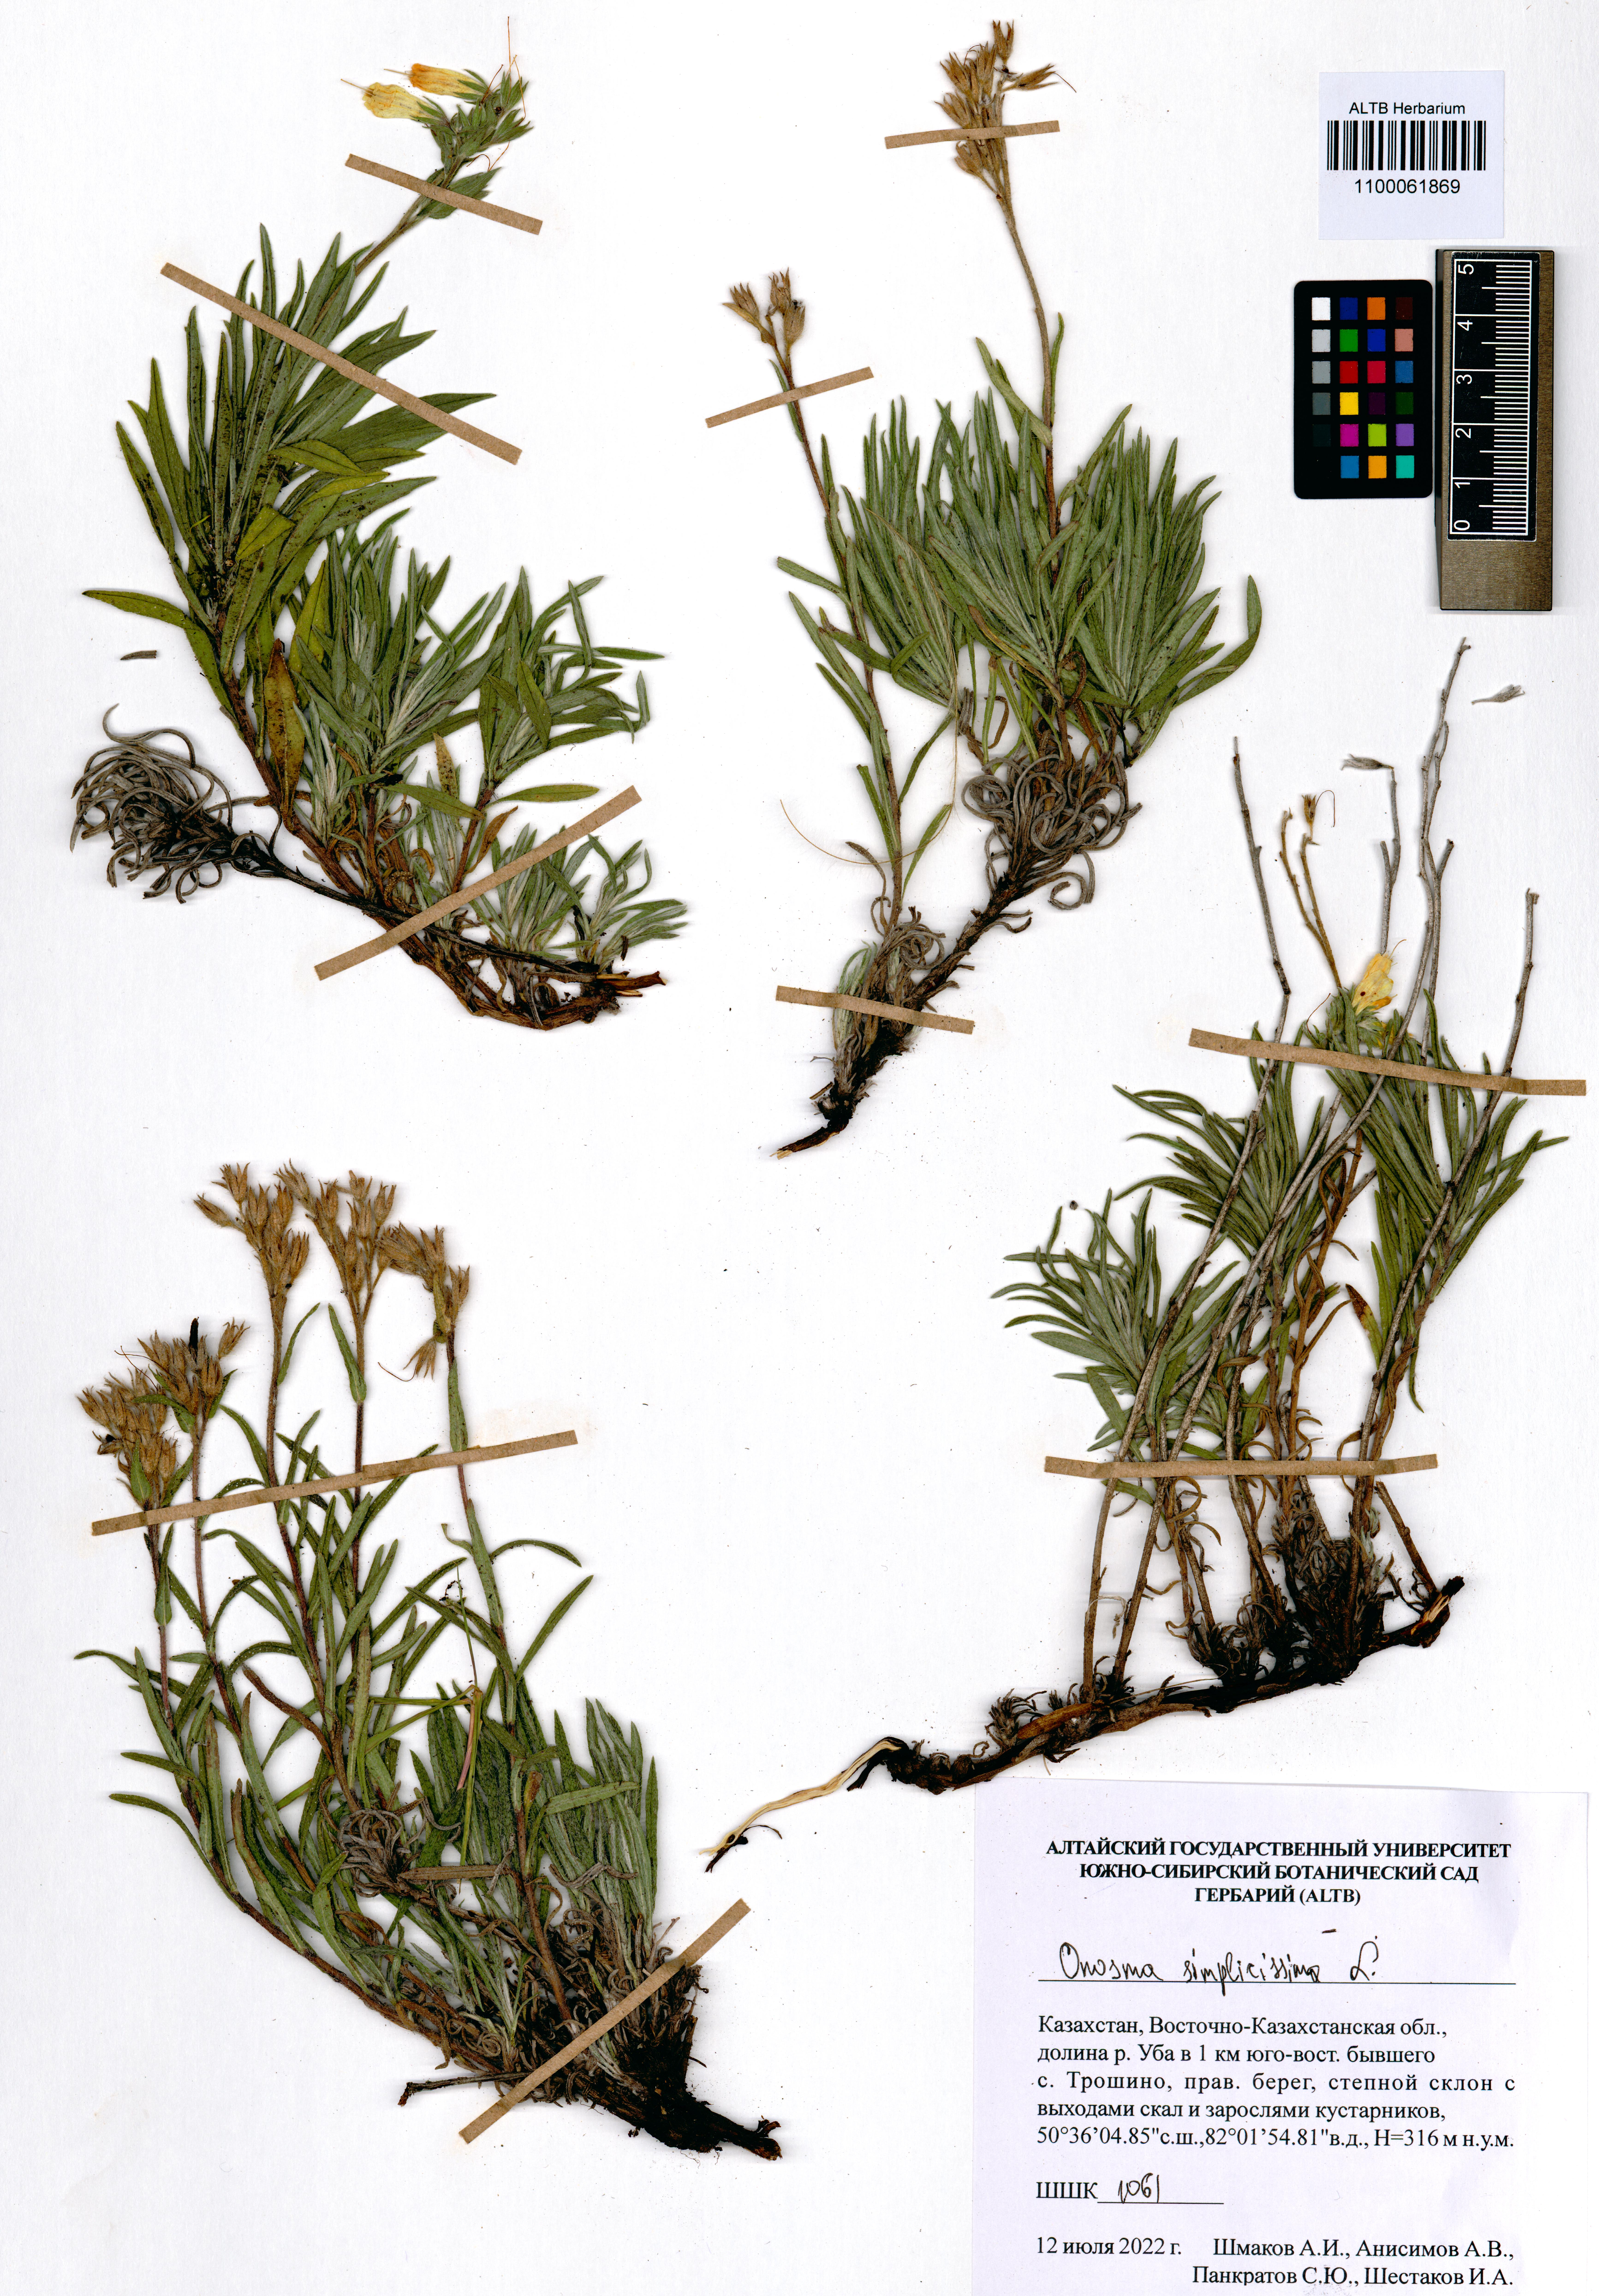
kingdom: Plantae
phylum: Tracheophyta
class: Magnoliopsida
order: Boraginales
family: Boraginaceae
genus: Onosma
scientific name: Onosma simplicissima
